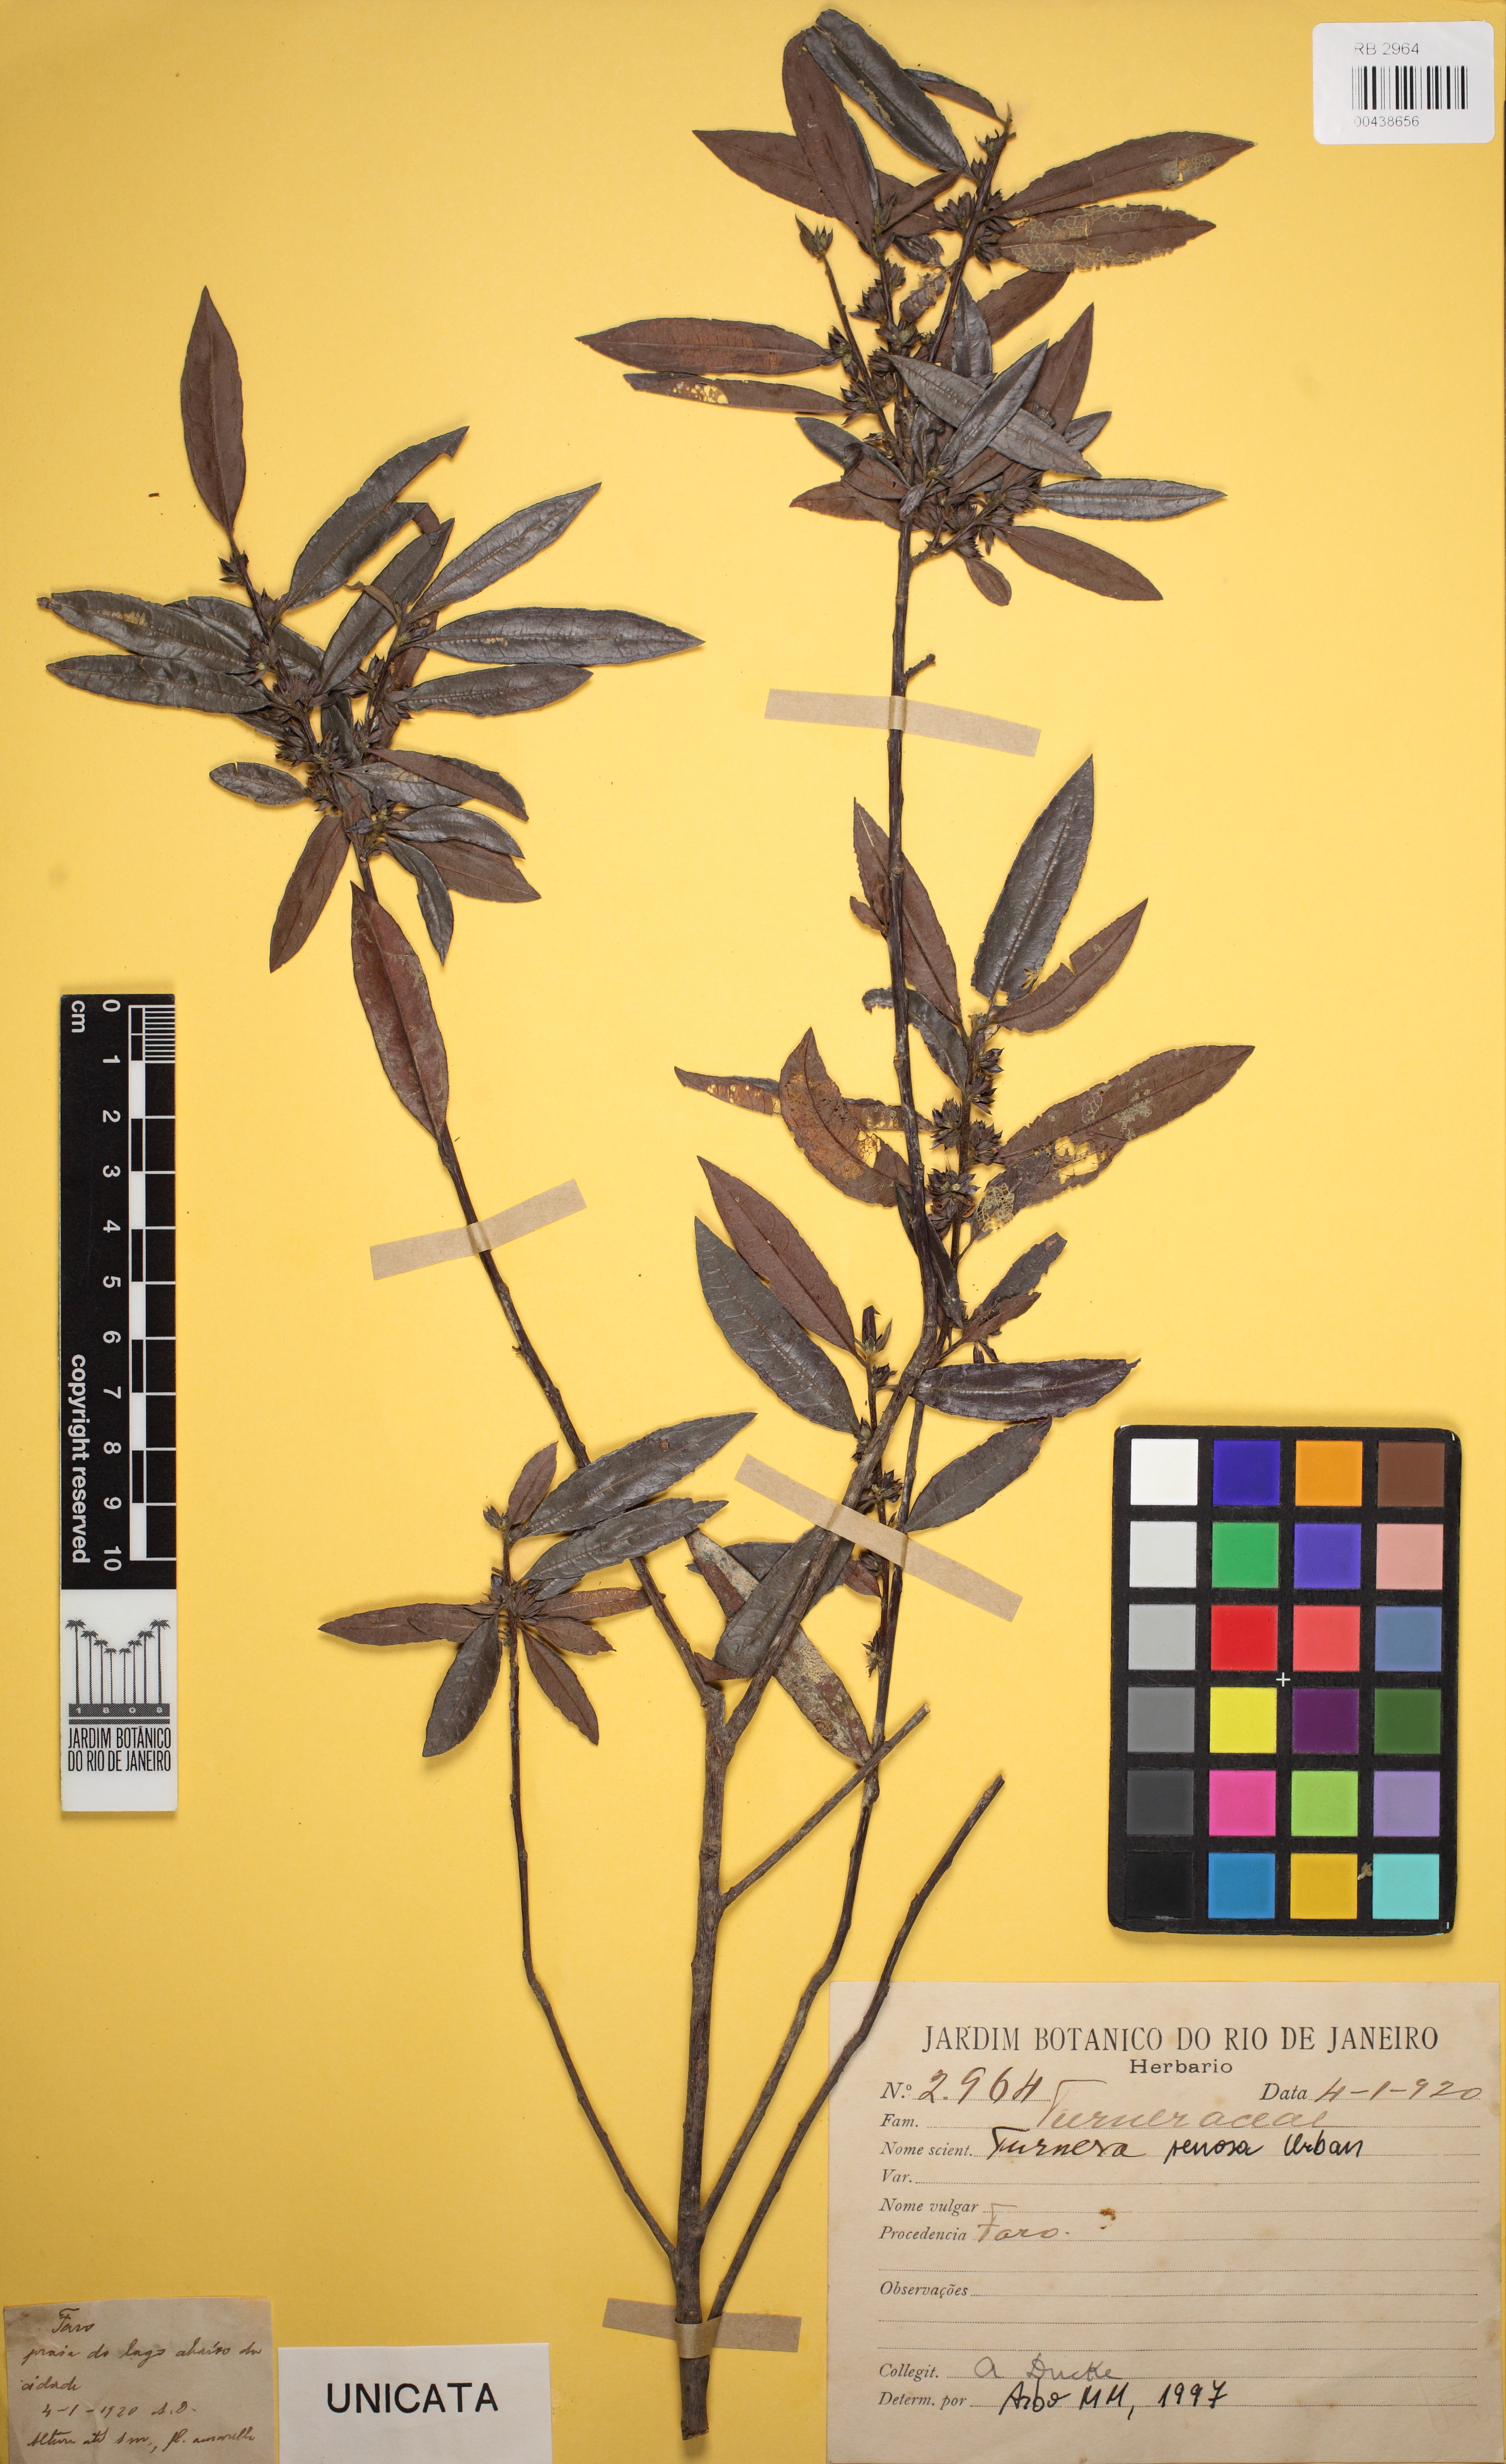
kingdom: Plantae
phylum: Tracheophyta
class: Magnoliopsida
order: Malpighiales
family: Turneraceae
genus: Turnera
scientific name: Turnera venosa
